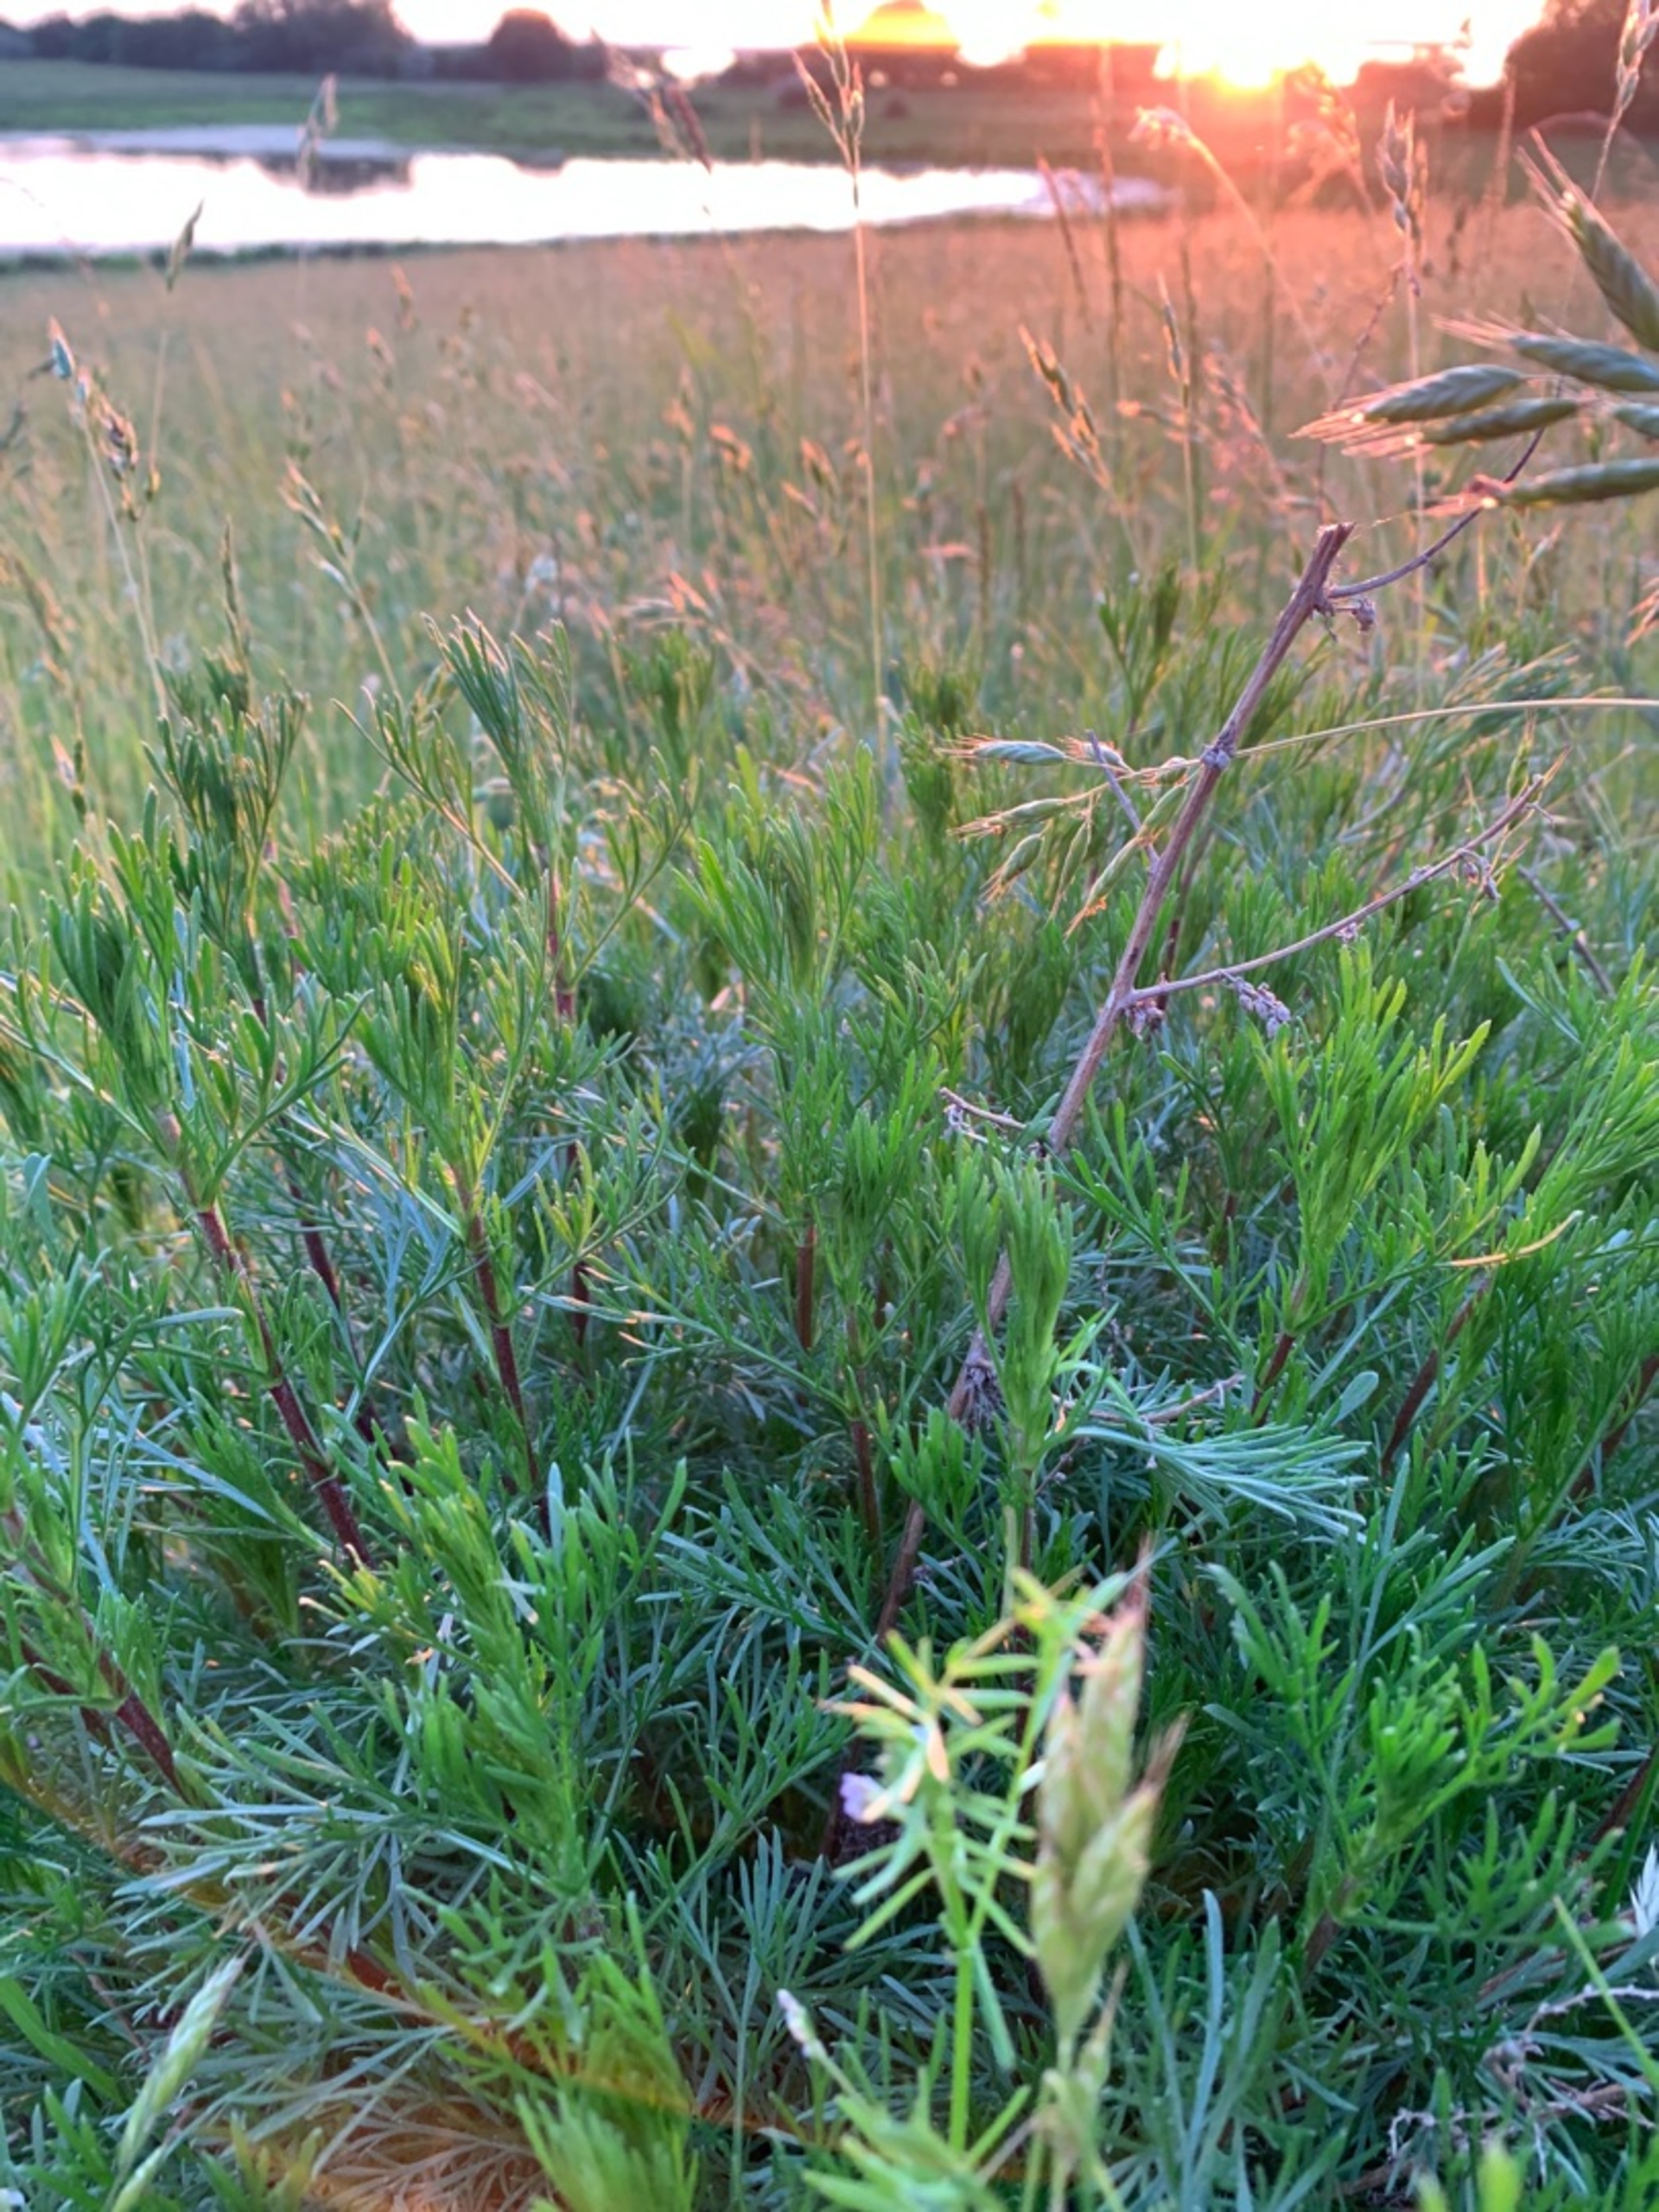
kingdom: Plantae
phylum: Tracheophyta
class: Magnoliopsida
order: Asterales
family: Asteraceae
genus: Artemisia
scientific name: Artemisia campestris
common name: Mark-bynke
